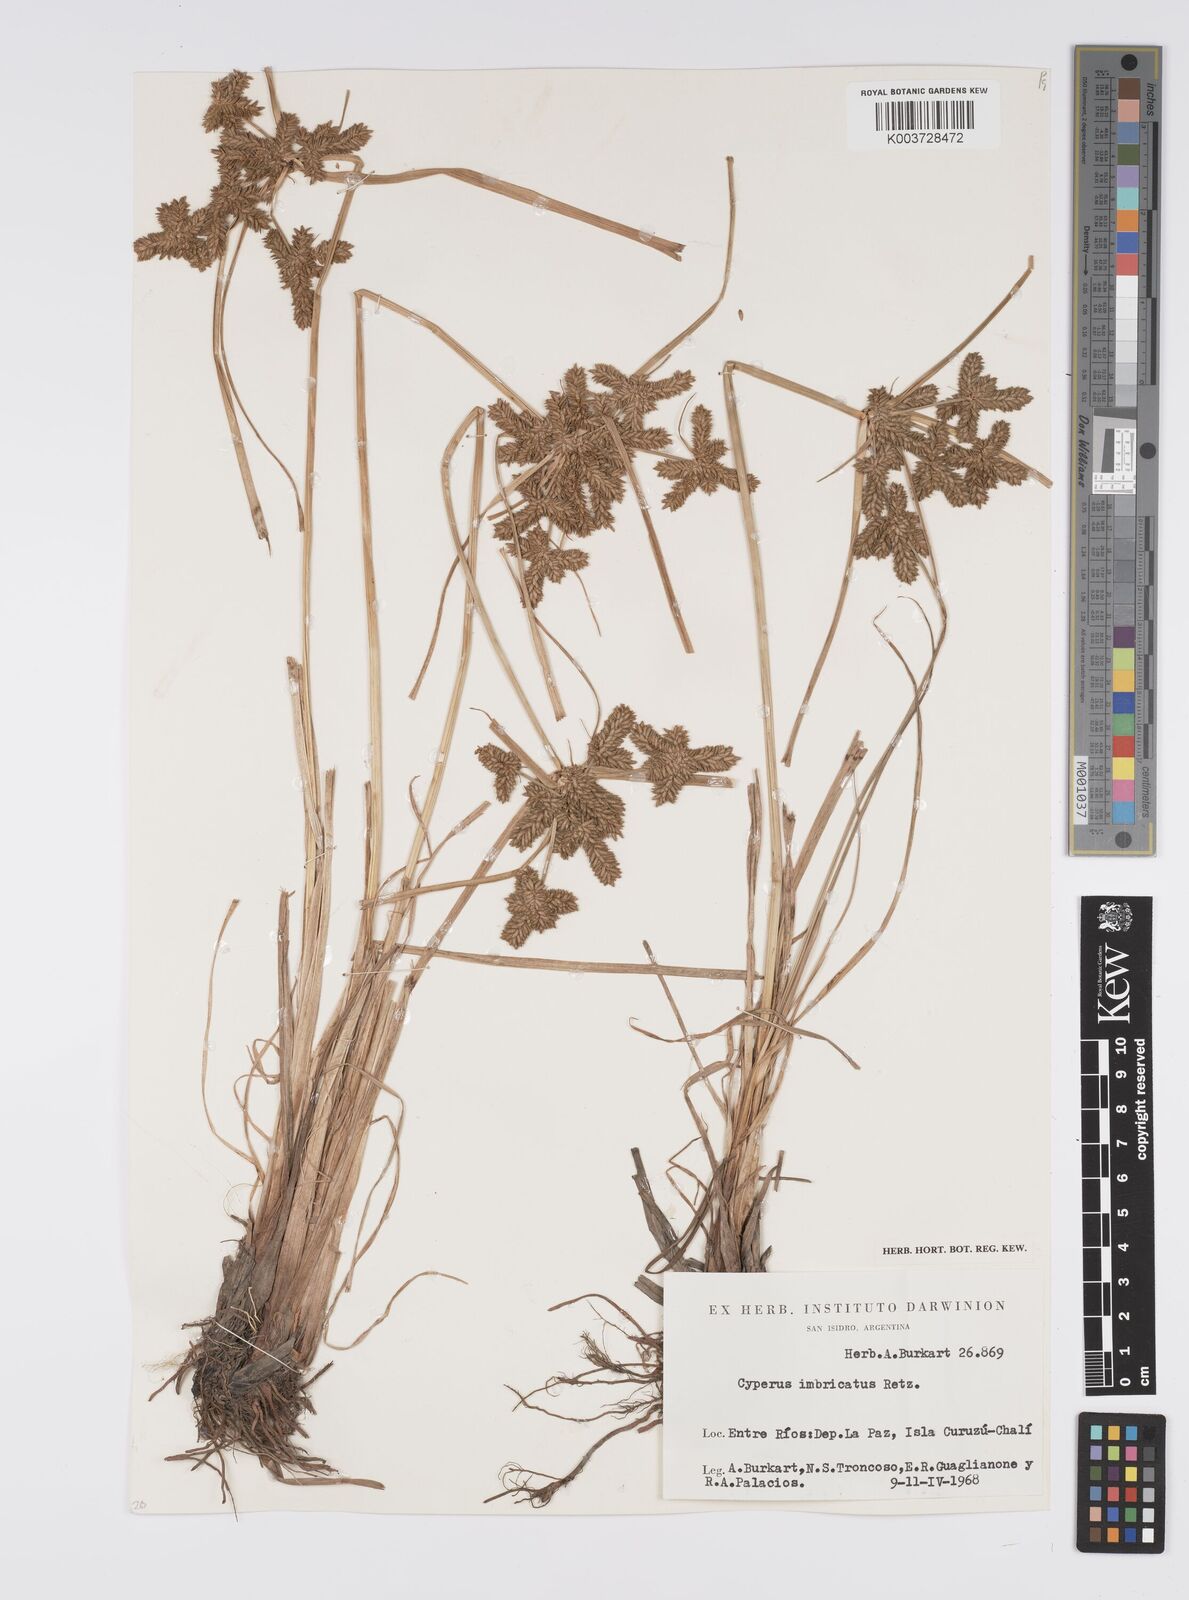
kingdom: Plantae
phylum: Tracheophyta
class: Liliopsida
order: Poales
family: Cyperaceae
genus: Cyperus
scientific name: Cyperus imbricatus
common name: Shingle flatsedge
